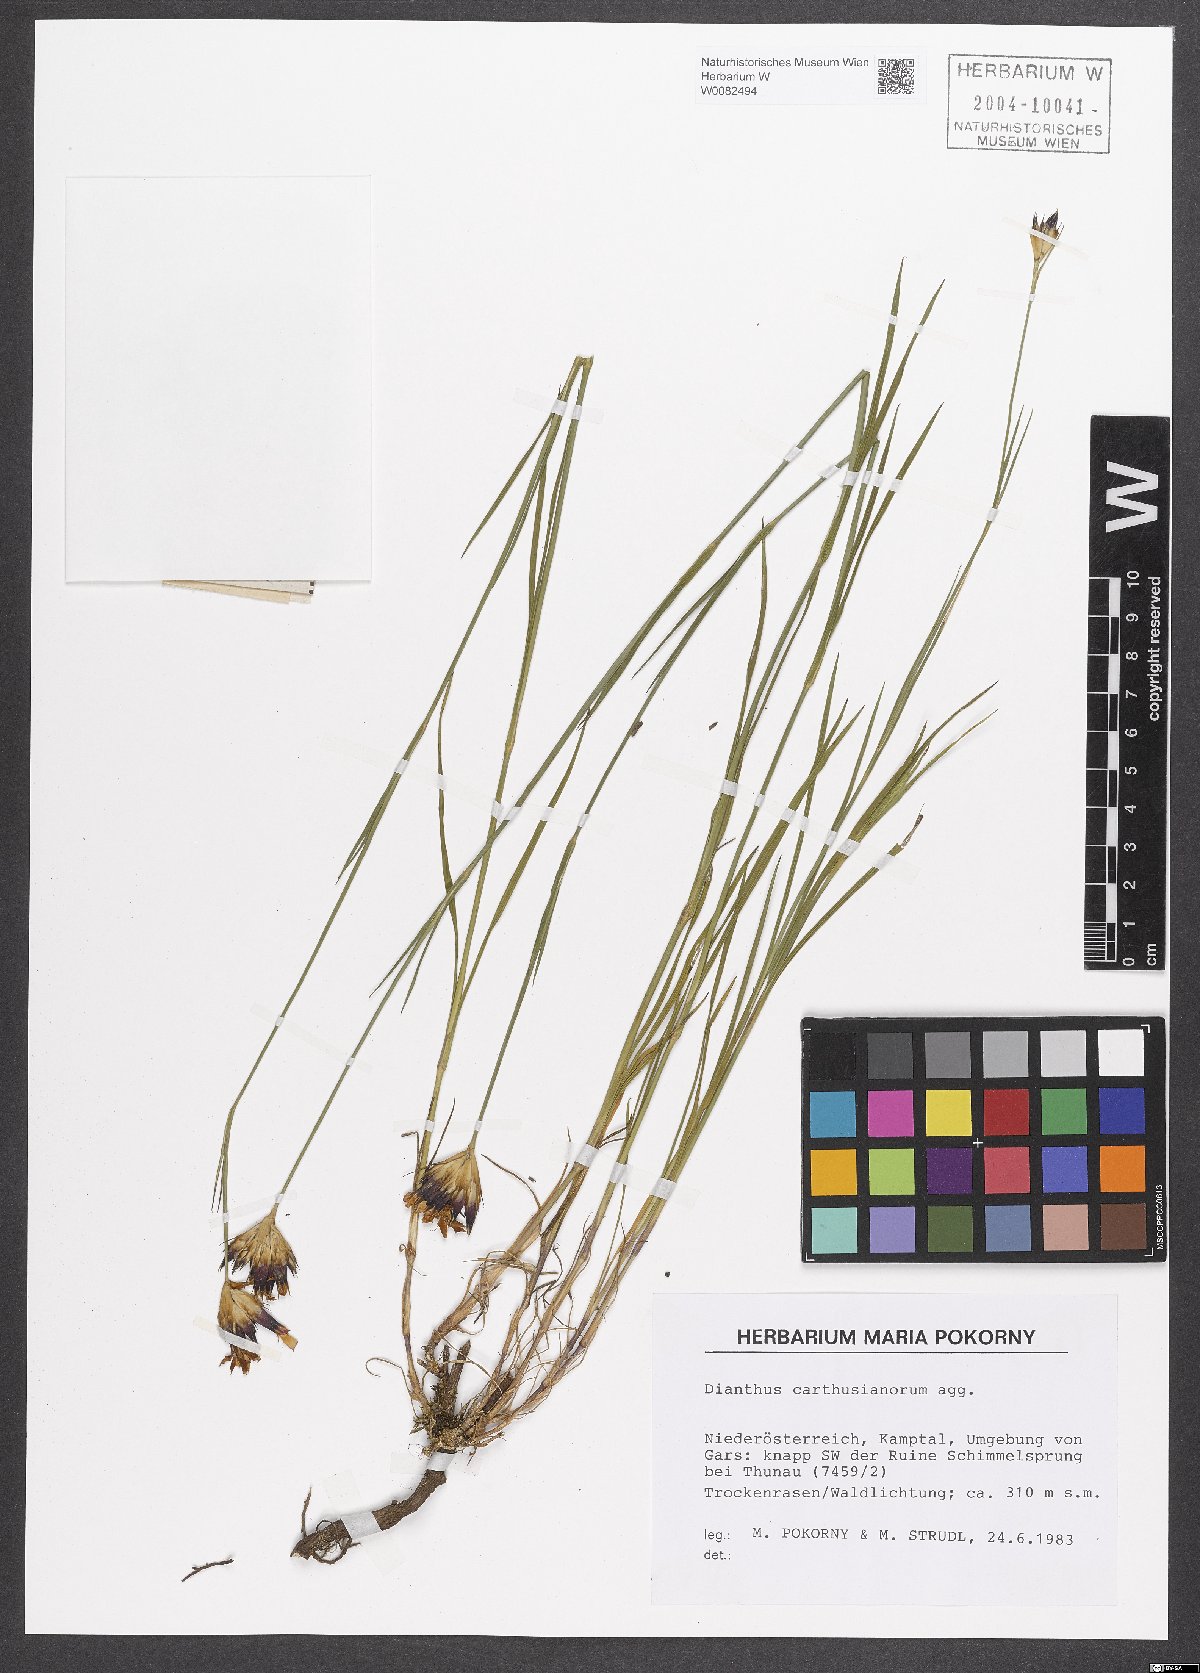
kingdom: Plantae
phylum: Tracheophyta
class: Magnoliopsida
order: Caryophyllales
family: Caryophyllaceae
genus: Dianthus
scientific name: Dianthus carthusianorum
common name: Carthusian pink
